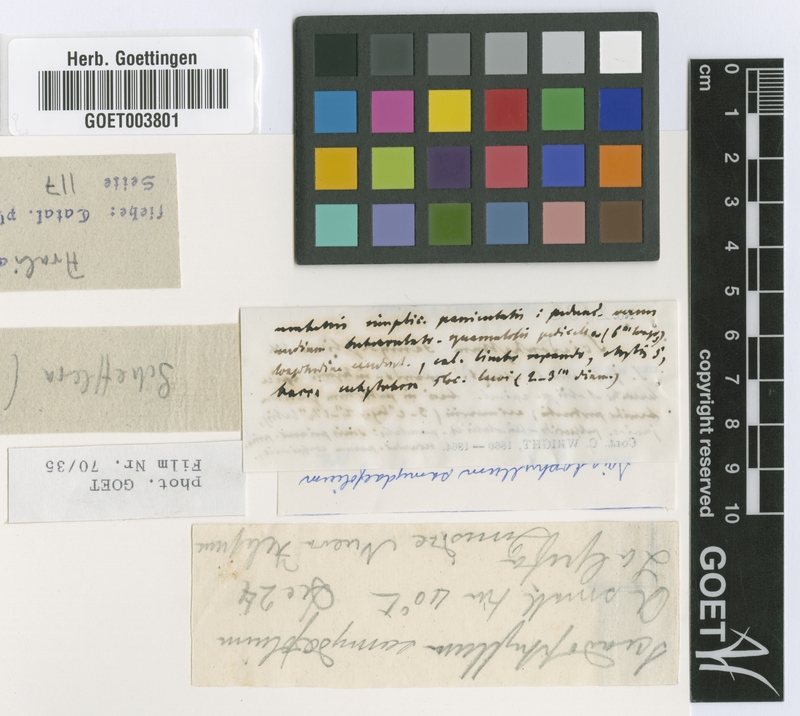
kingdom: Plantae
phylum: Tracheophyta
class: Magnoliopsida
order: Apiales
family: Araliaceae
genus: Dendropanax
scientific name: Dendropanax arboreus
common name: Potato-wood
